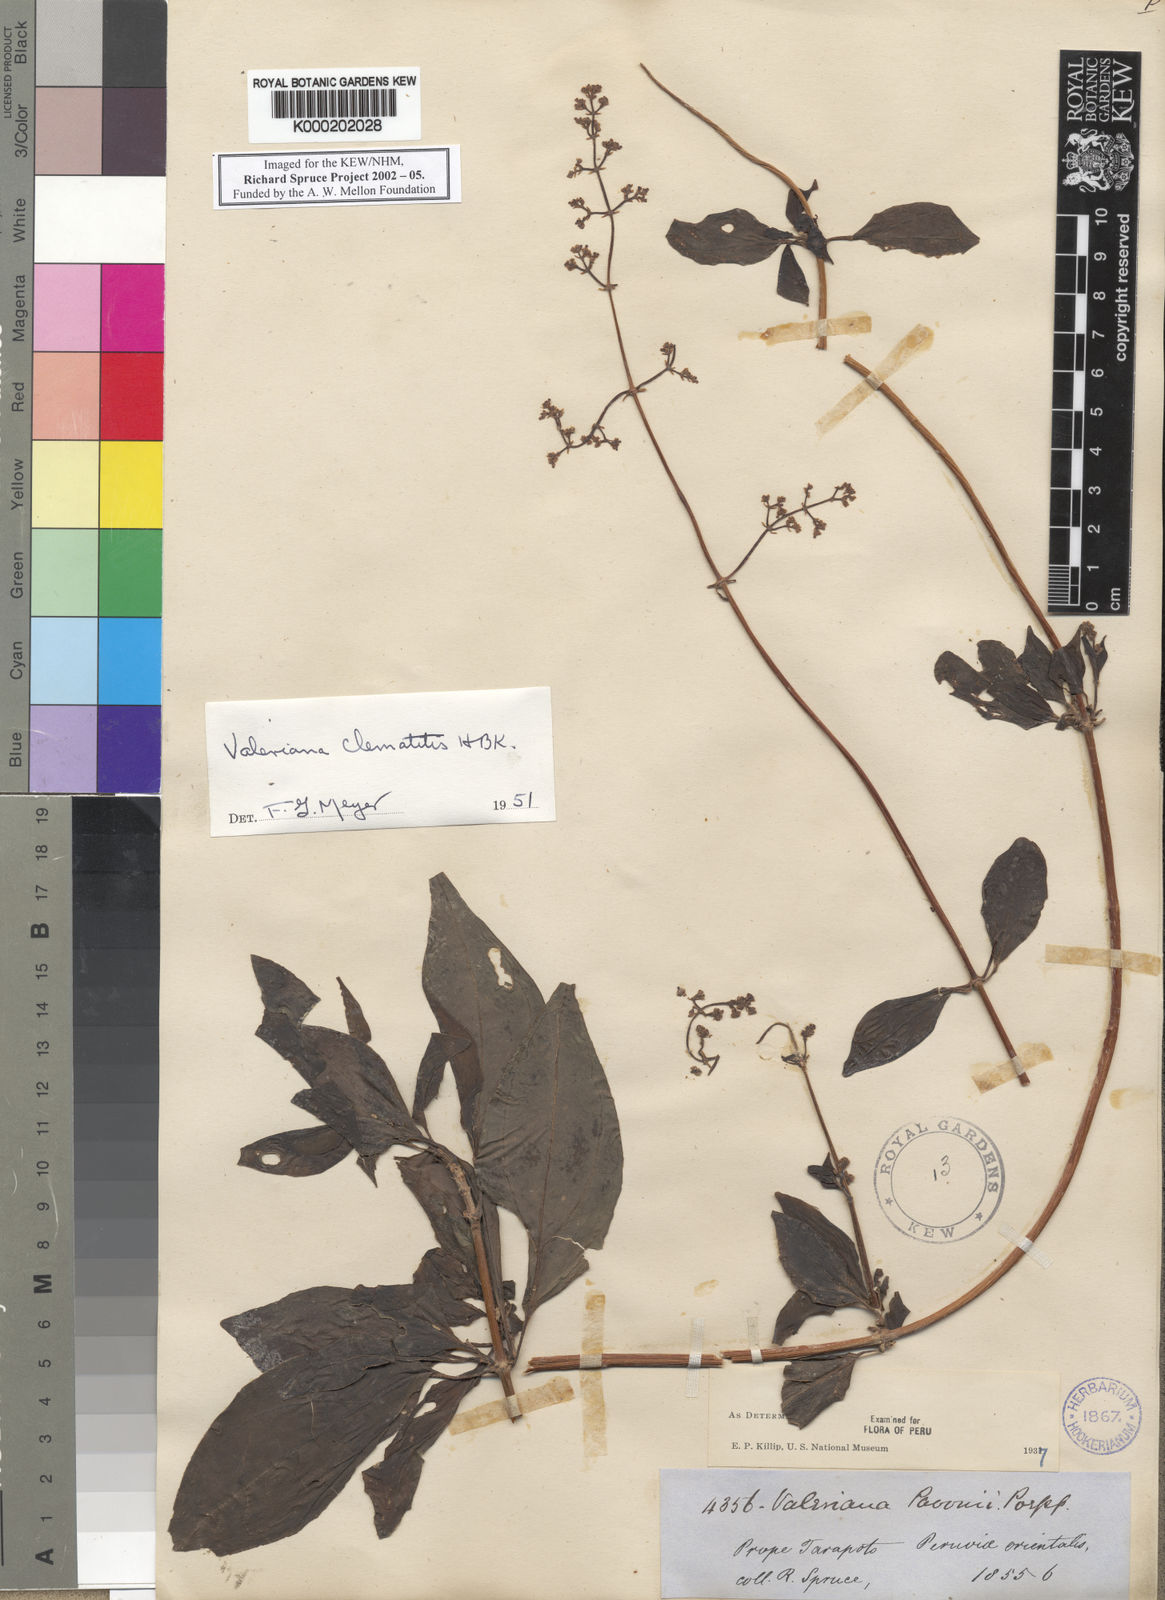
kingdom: Plantae
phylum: Tracheophyta
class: Magnoliopsida
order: Dipsacales
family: Caprifoliaceae
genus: Valeriana
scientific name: Valeriana clematitis
